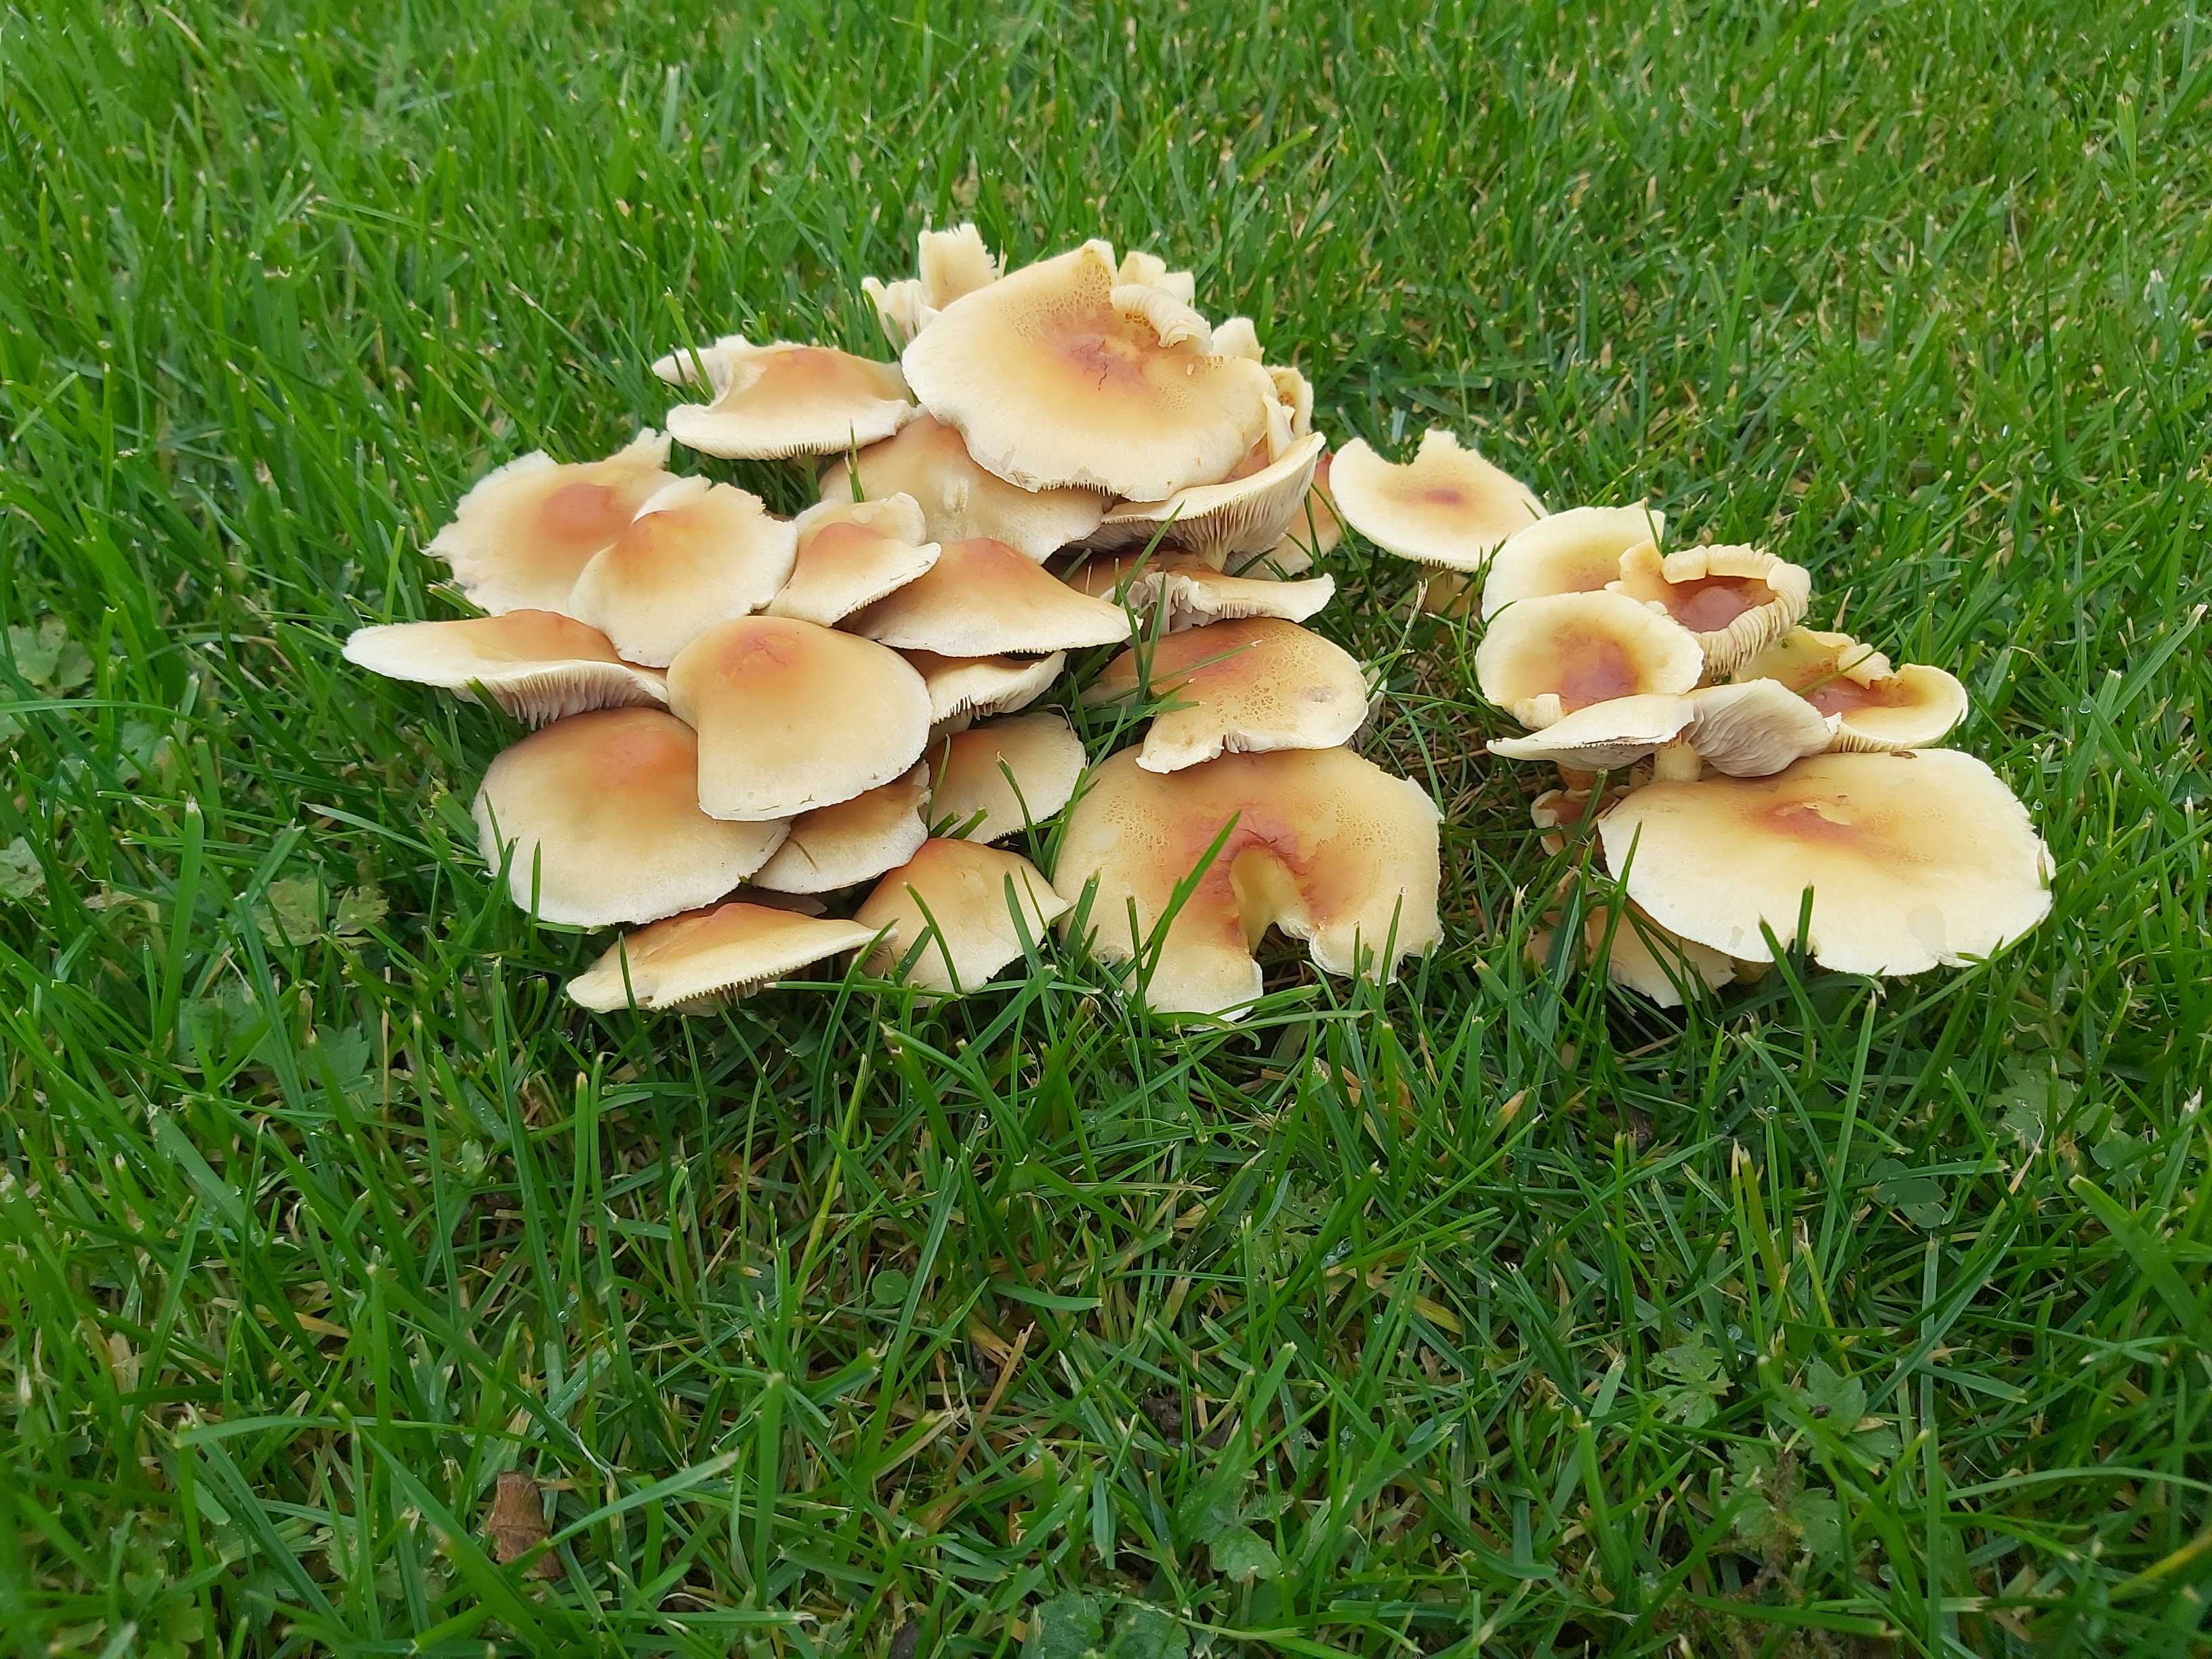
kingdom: Fungi
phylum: Basidiomycota
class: Agaricomycetes
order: Agaricales
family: Strophariaceae
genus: Hypholoma
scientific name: Hypholoma fasciculare
